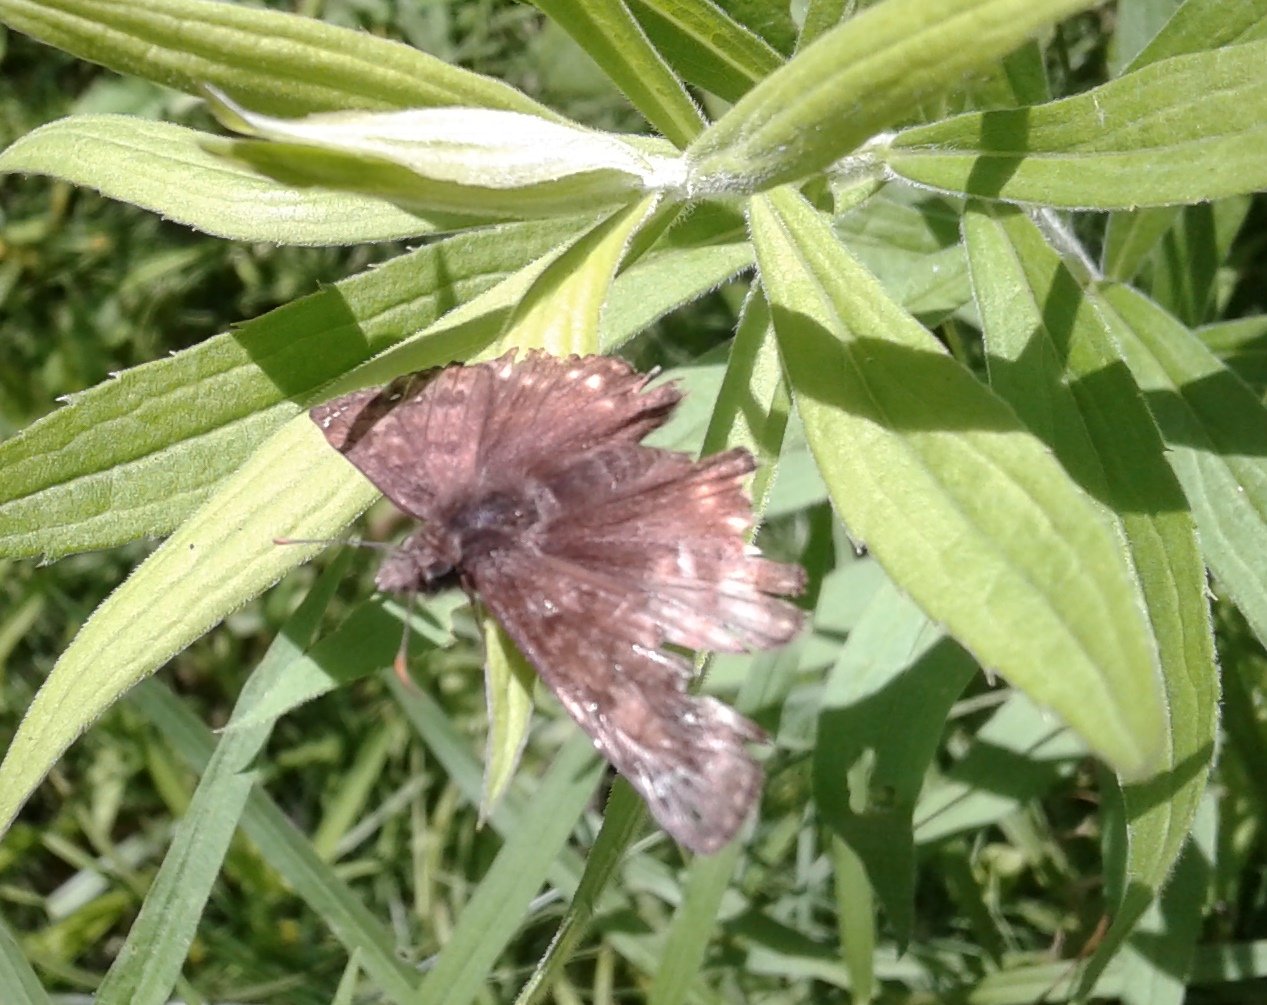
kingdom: Animalia
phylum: Arthropoda
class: Insecta
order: Lepidoptera
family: Hesperiidae
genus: Gesta
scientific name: Gesta
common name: Juvenal's Duskywing
